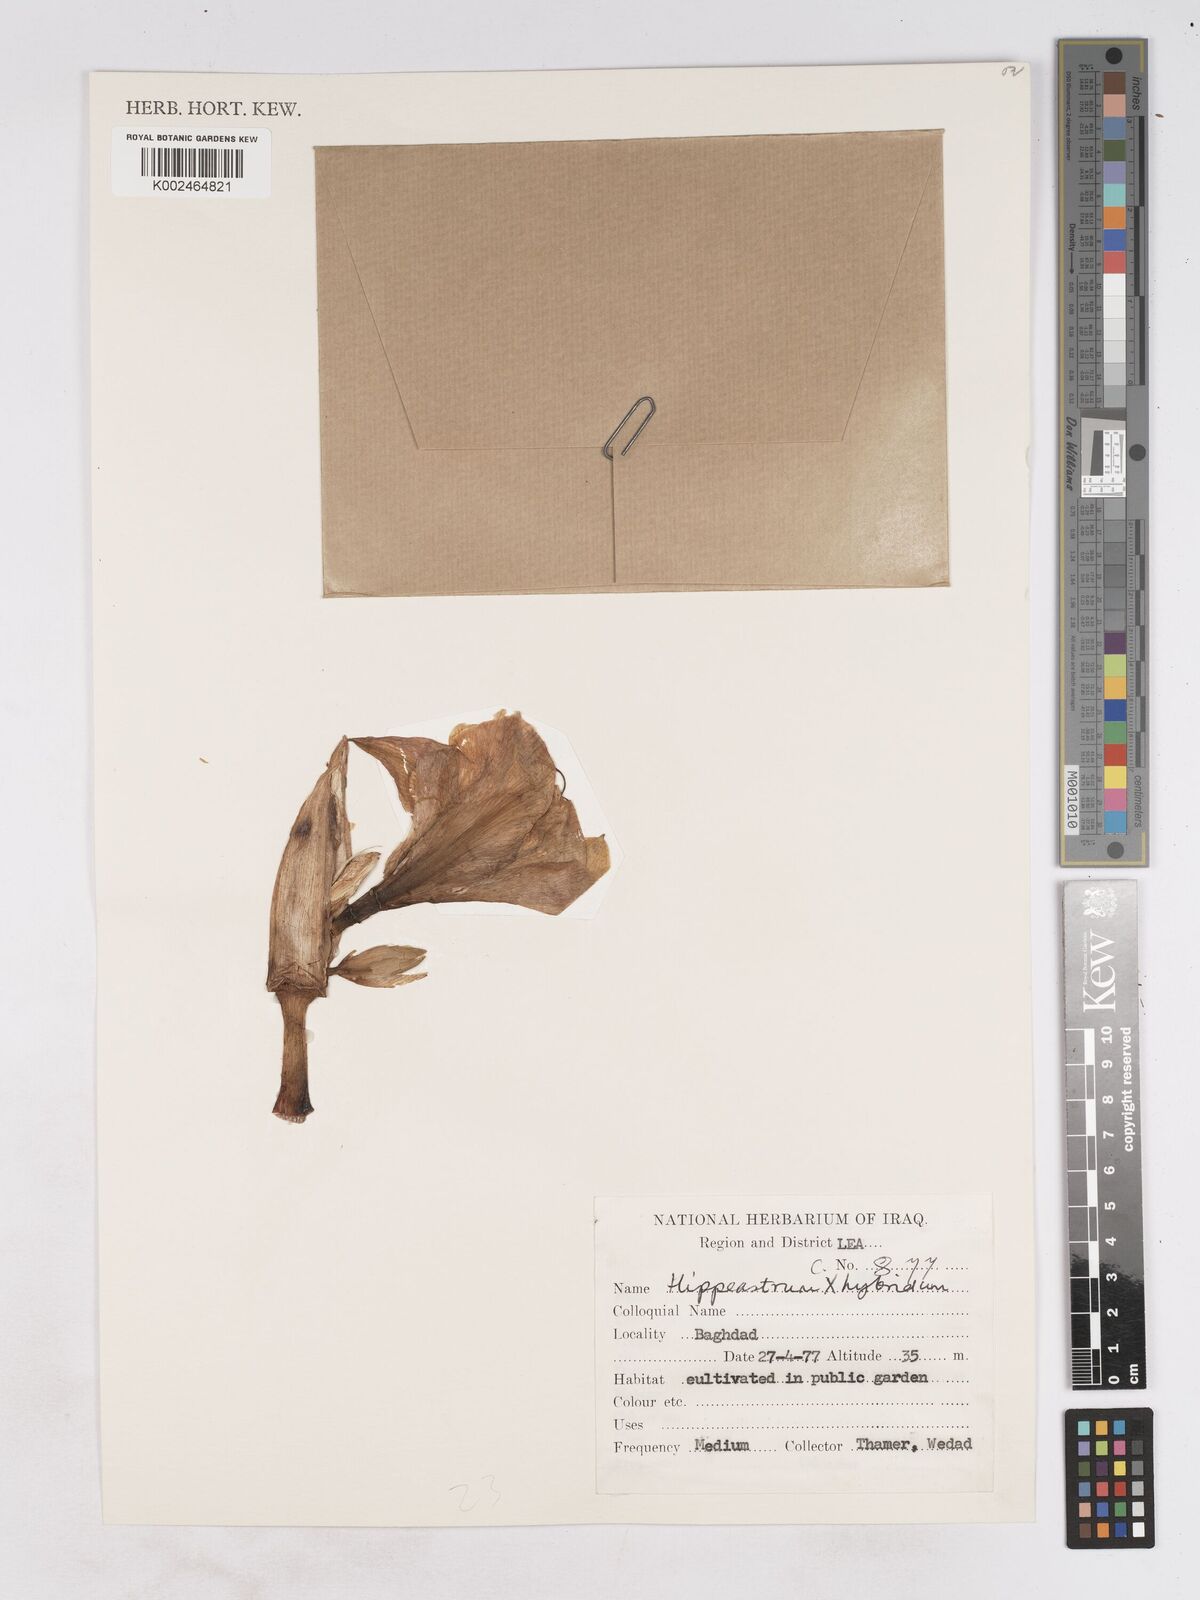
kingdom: Plantae
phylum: Tracheophyta
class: Liliopsida
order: Asparagales
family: Amaryllidaceae
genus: Hippeastrum
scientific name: Hippeastrum
